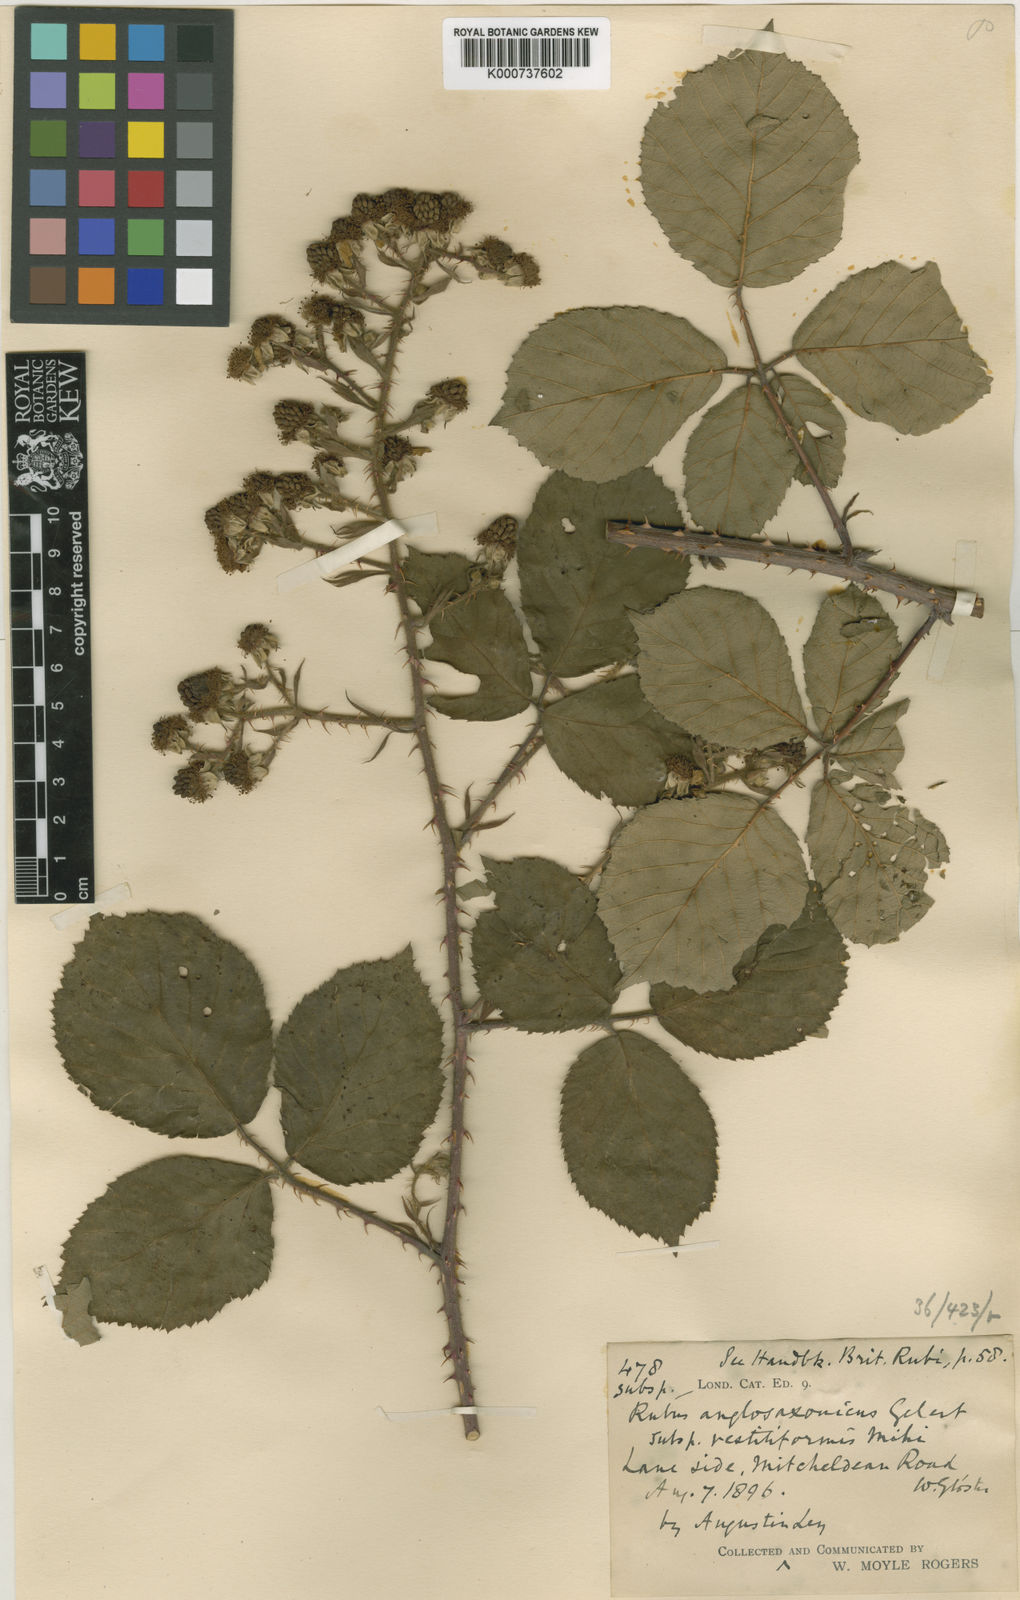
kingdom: Plantae
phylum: Tracheophyta
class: Magnoliopsida
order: Rosales
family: Rosaceae
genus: Rubus
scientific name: Rubus
